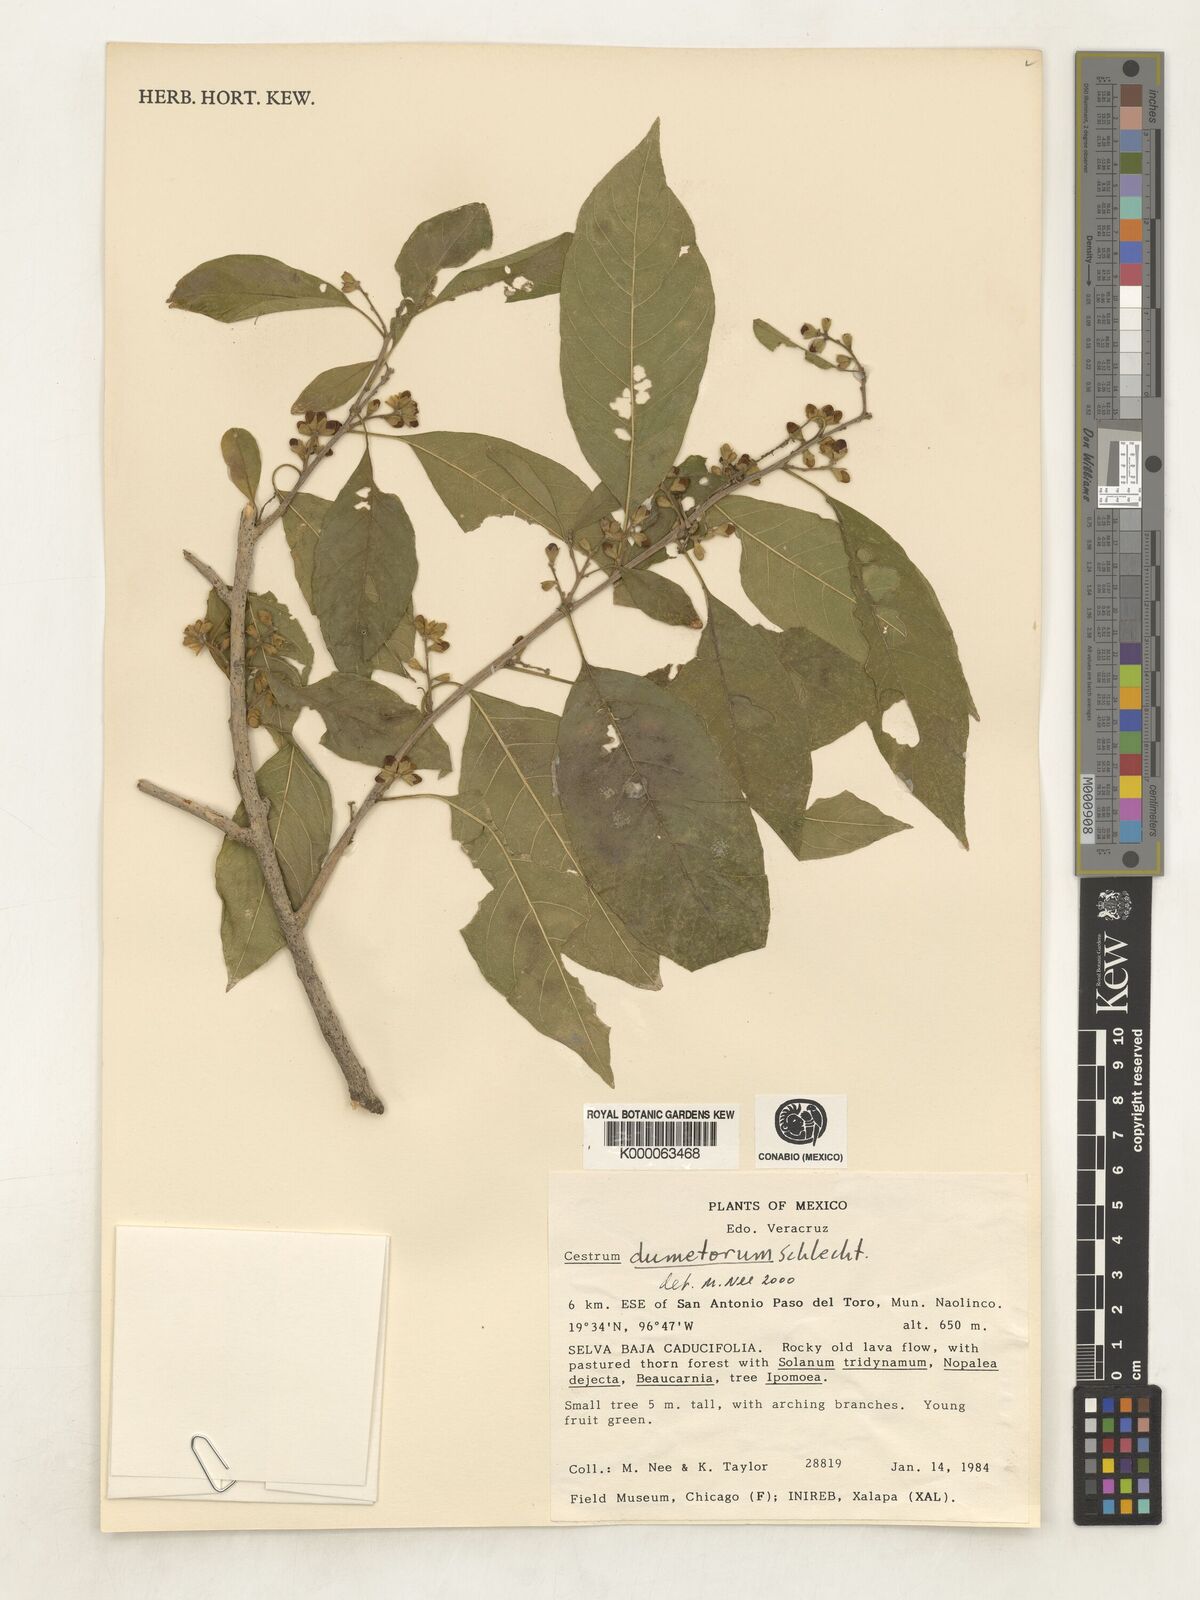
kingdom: Plantae
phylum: Tracheophyta
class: Magnoliopsida
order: Solanales
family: Solanaceae
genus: Cestrum
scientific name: Cestrum dumetorum
